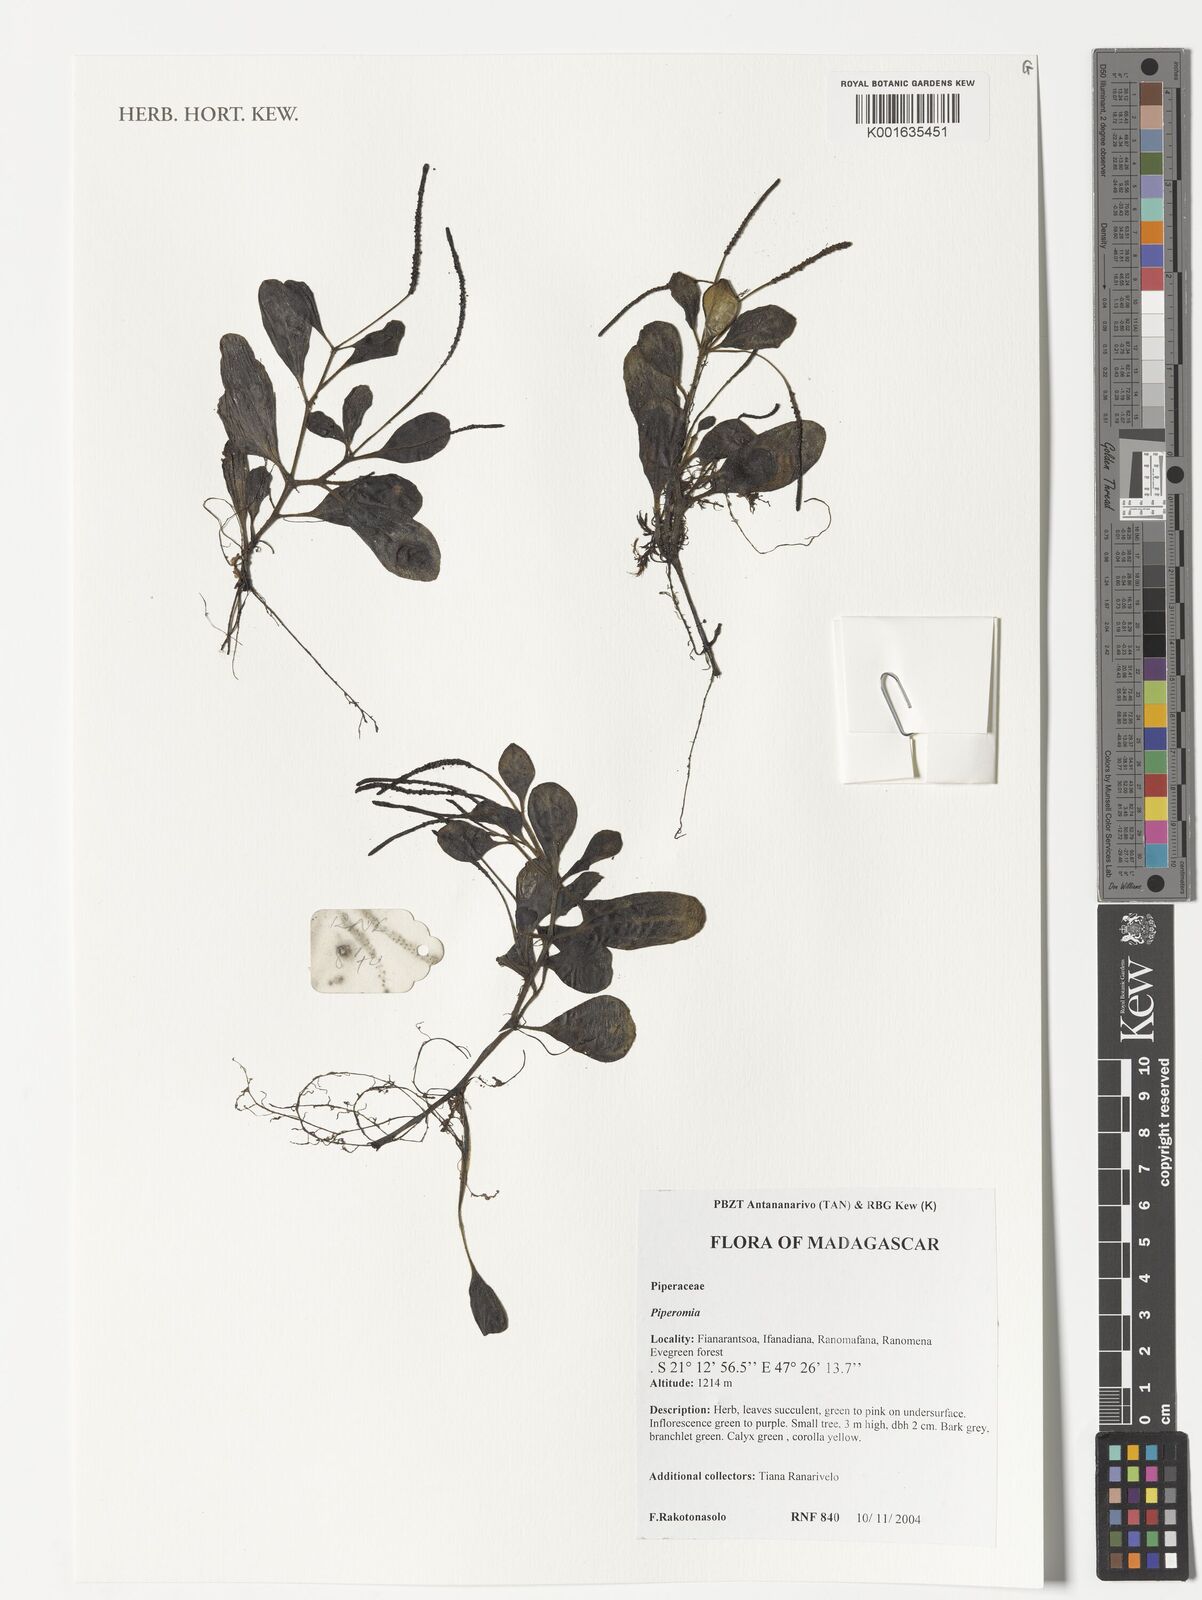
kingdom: Plantae
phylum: Tracheophyta
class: Magnoliopsida
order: Piperales
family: Piperaceae
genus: Peperomia
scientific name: Peperomia
